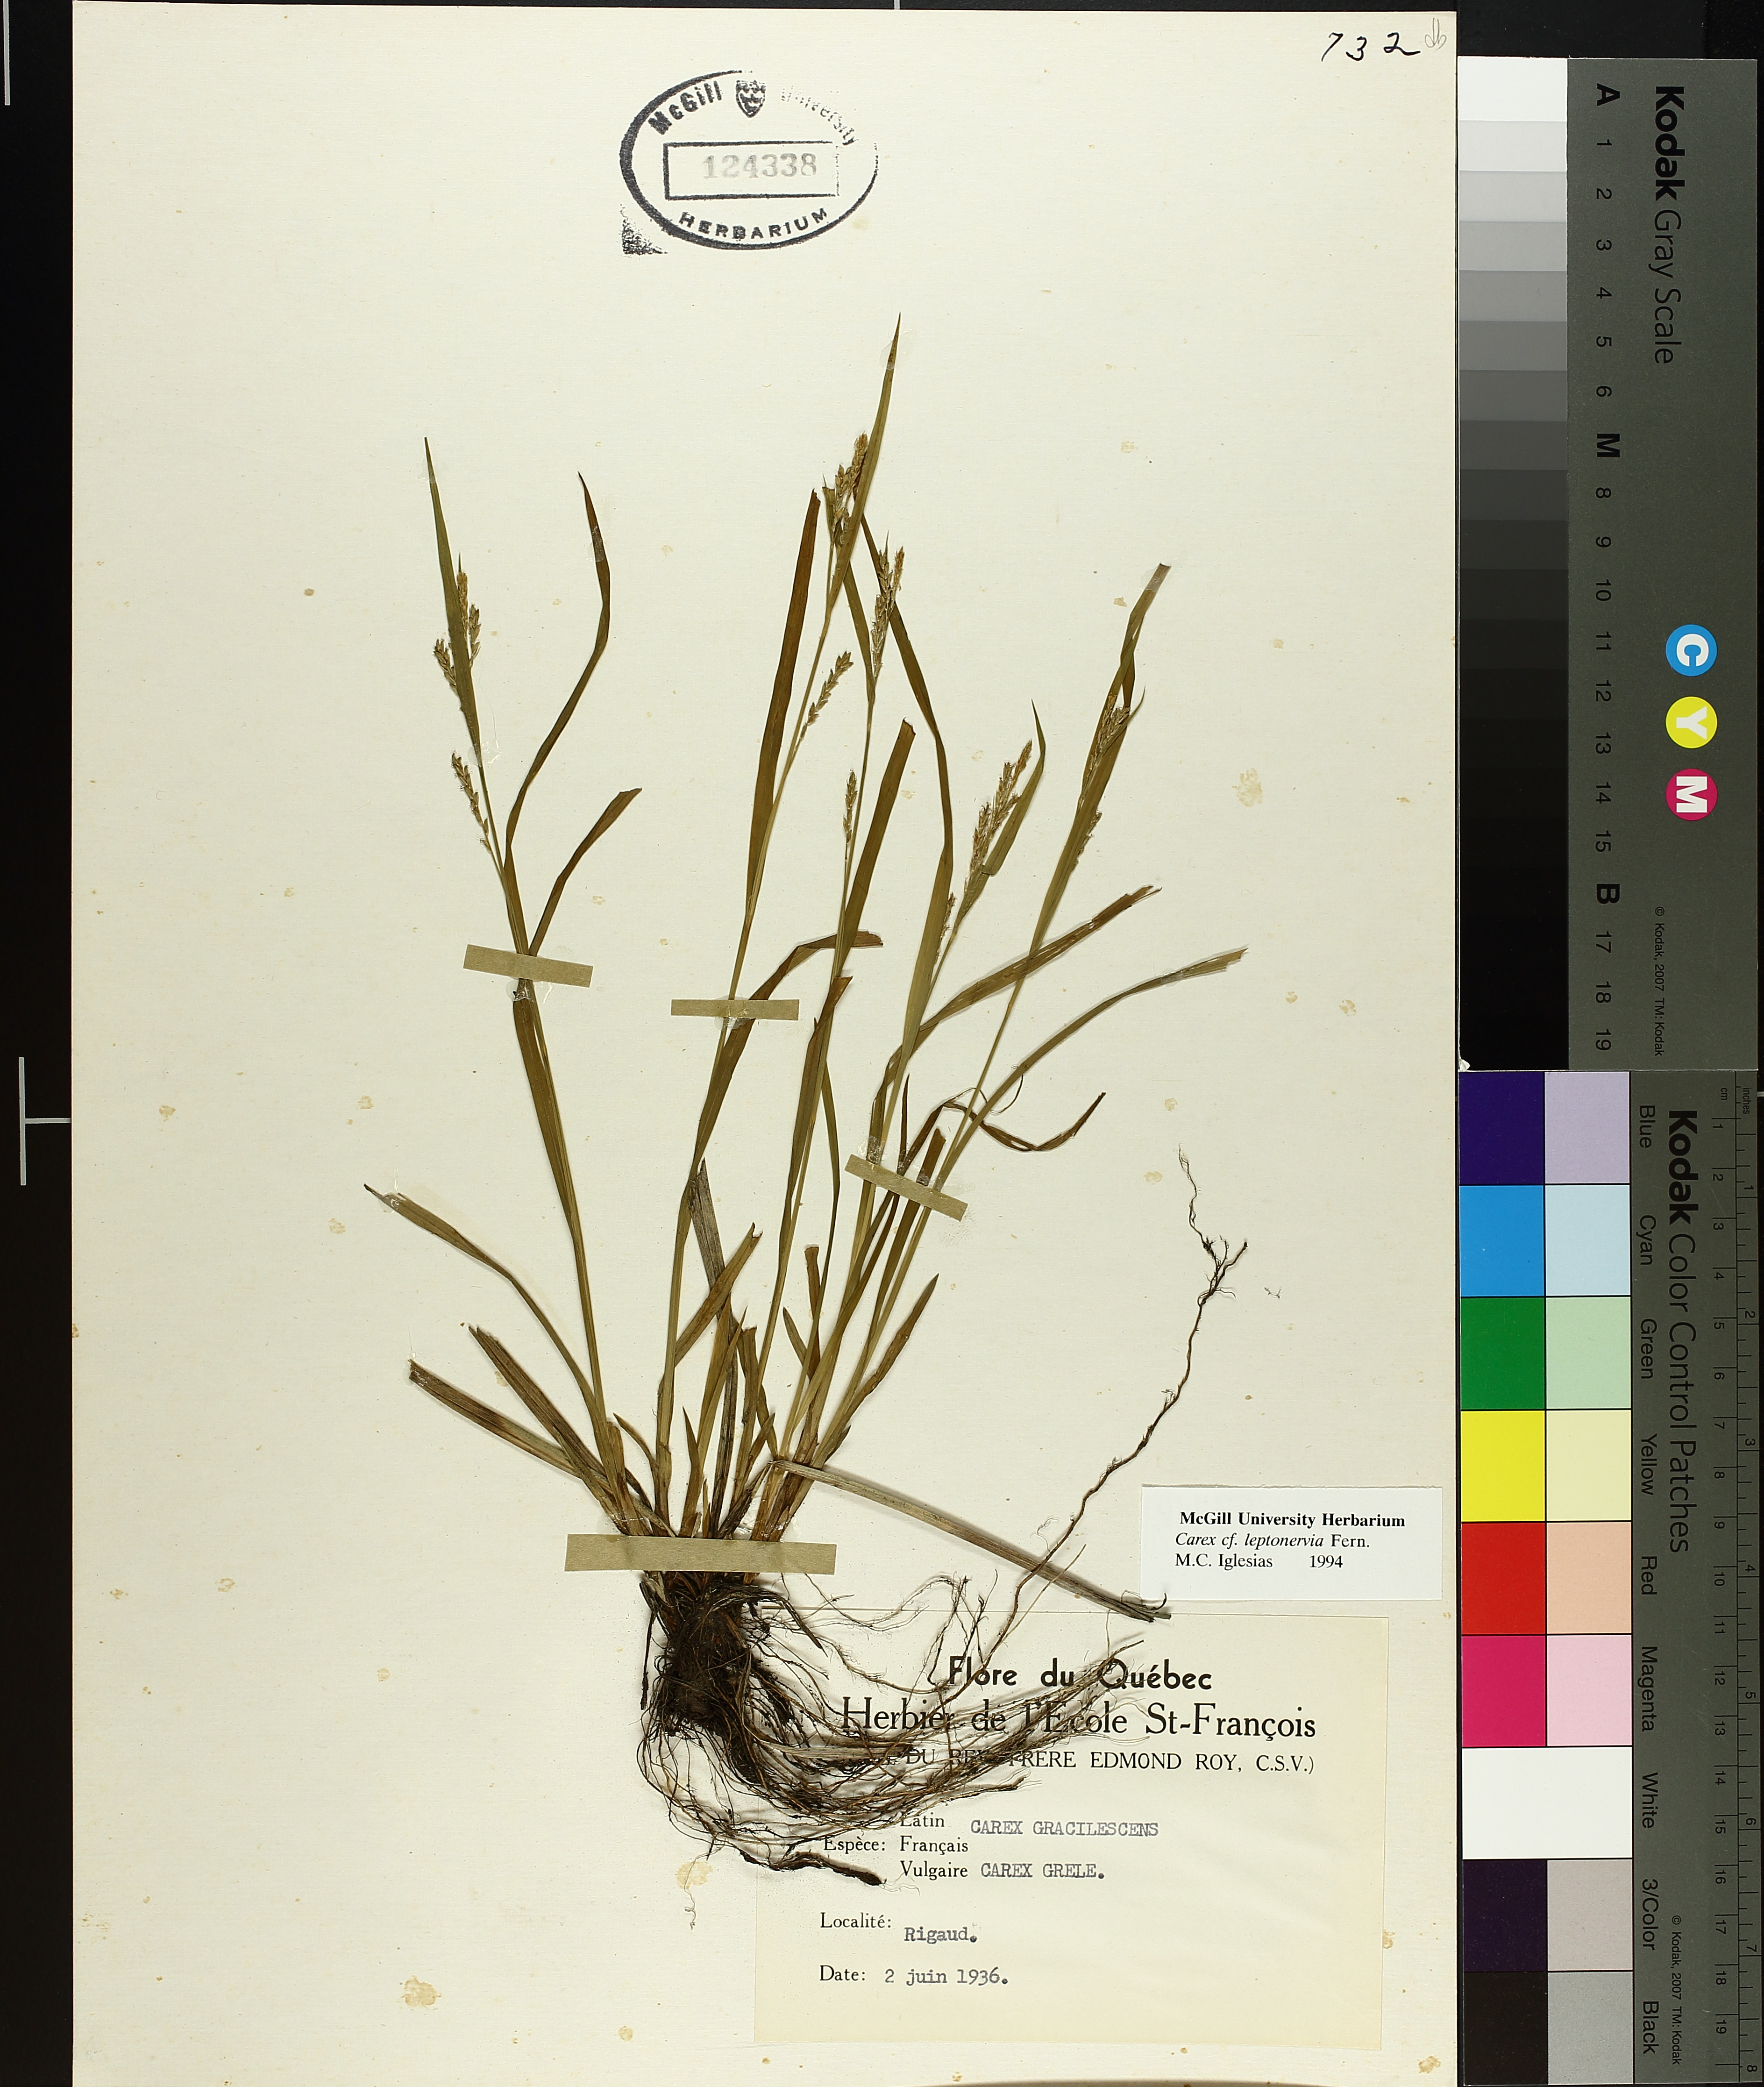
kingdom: Plantae
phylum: Tracheophyta
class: Liliopsida
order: Poales
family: Cyperaceae
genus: Carex
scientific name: Carex leptonervia
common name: Few-nerved wood sedge
